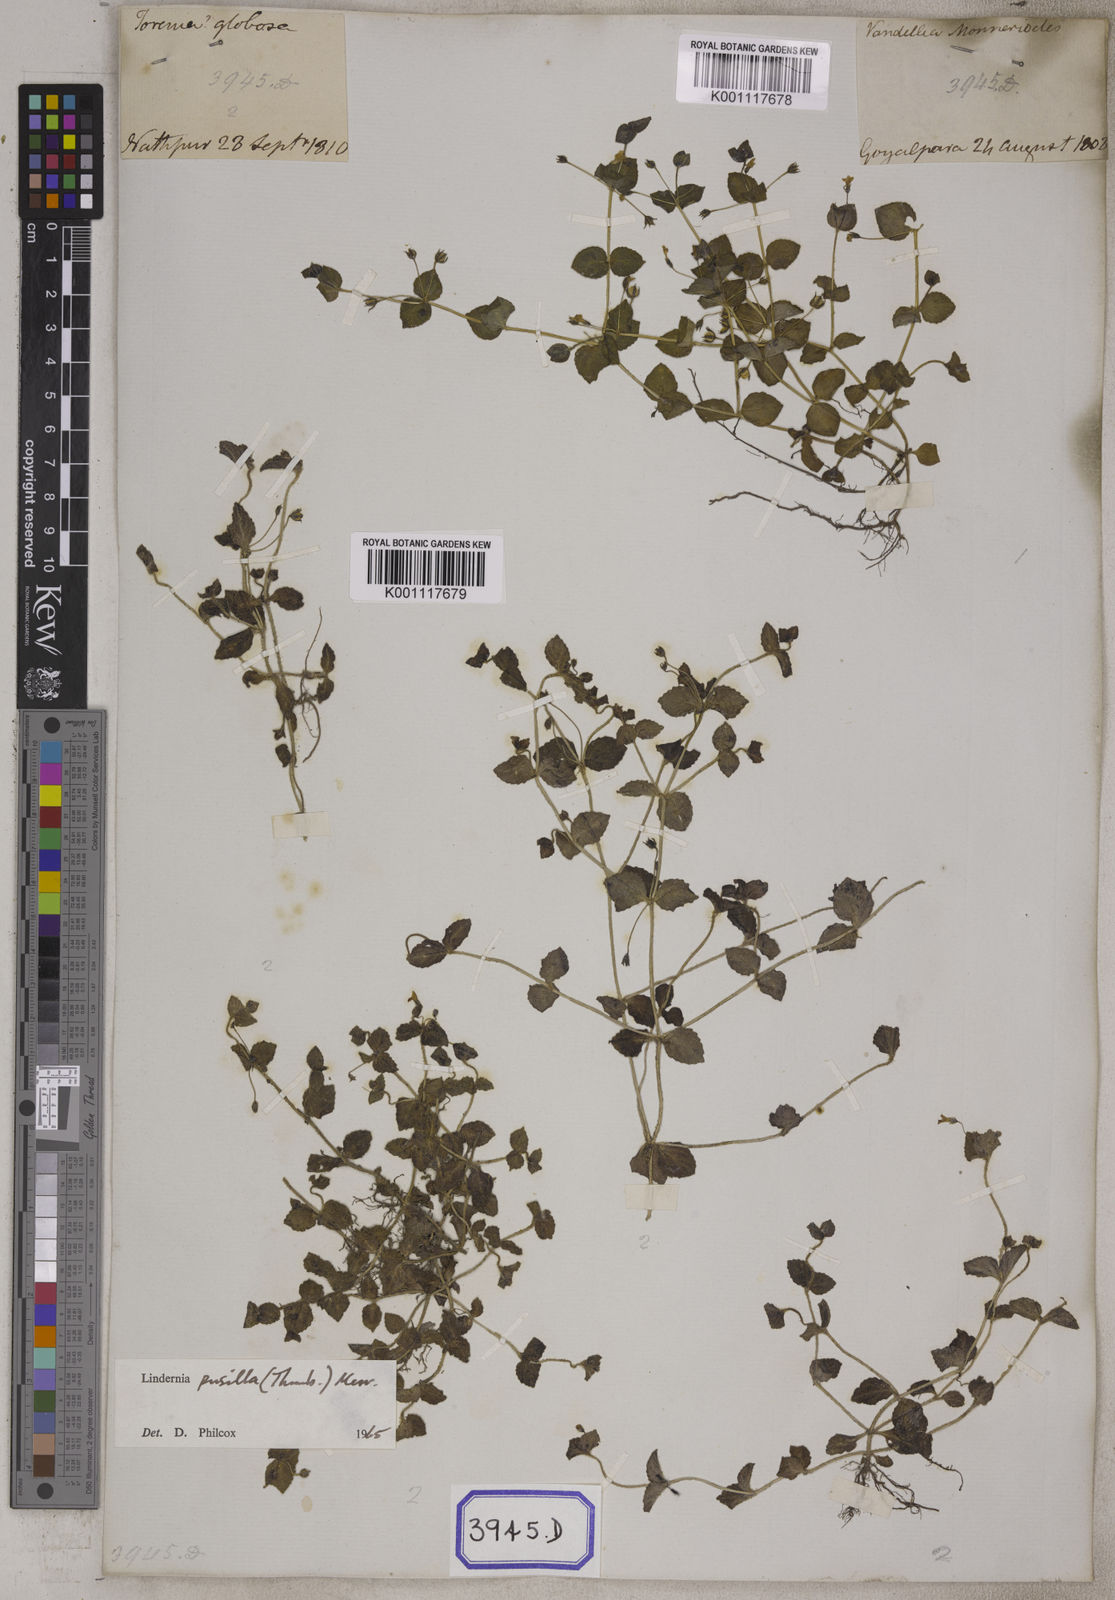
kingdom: Plantae
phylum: Tracheophyta
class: Magnoliopsida
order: Lamiales
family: Linderniaceae
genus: Yamazakia
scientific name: Yamazakia pusilla
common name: Tiny slitwort
